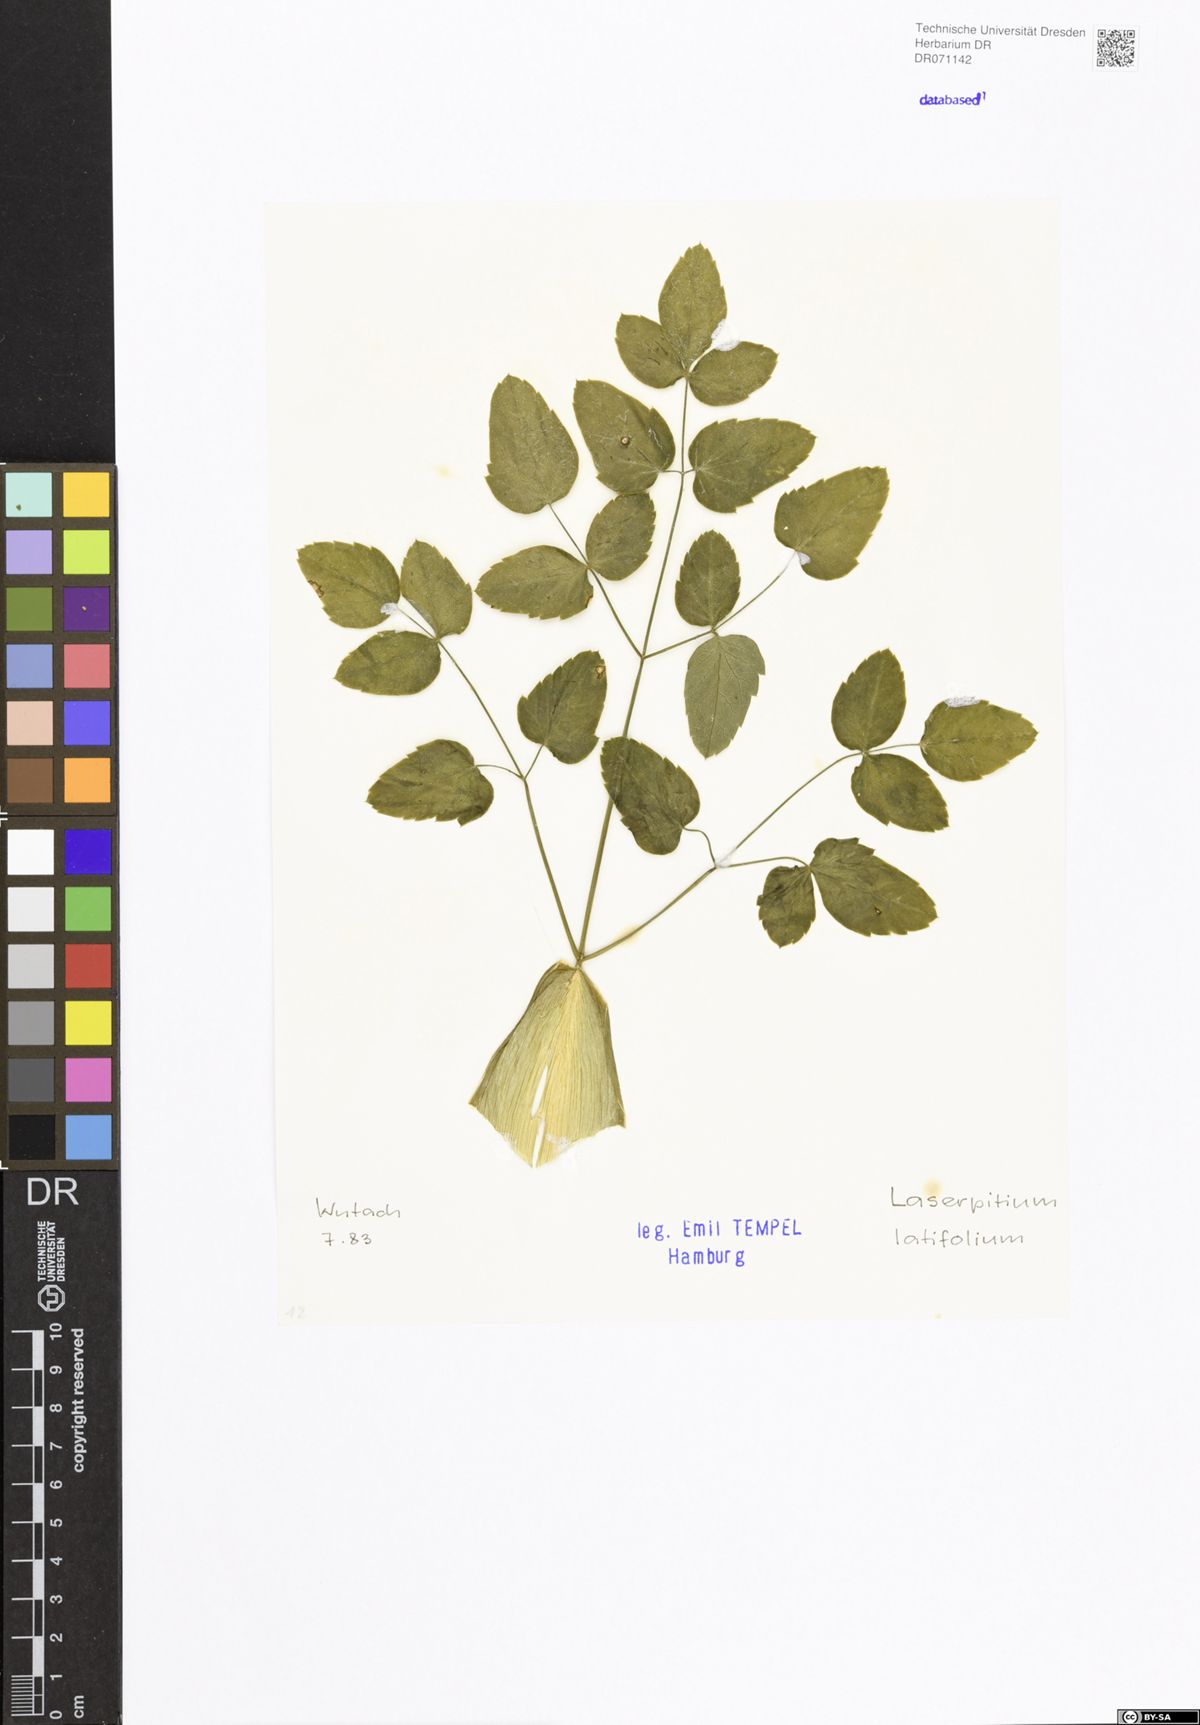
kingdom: Plantae
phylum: Tracheophyta
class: Magnoliopsida
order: Apiales
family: Apiaceae
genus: Laserpitium
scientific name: Laserpitium latifolium
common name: Broadleaf sermountain
